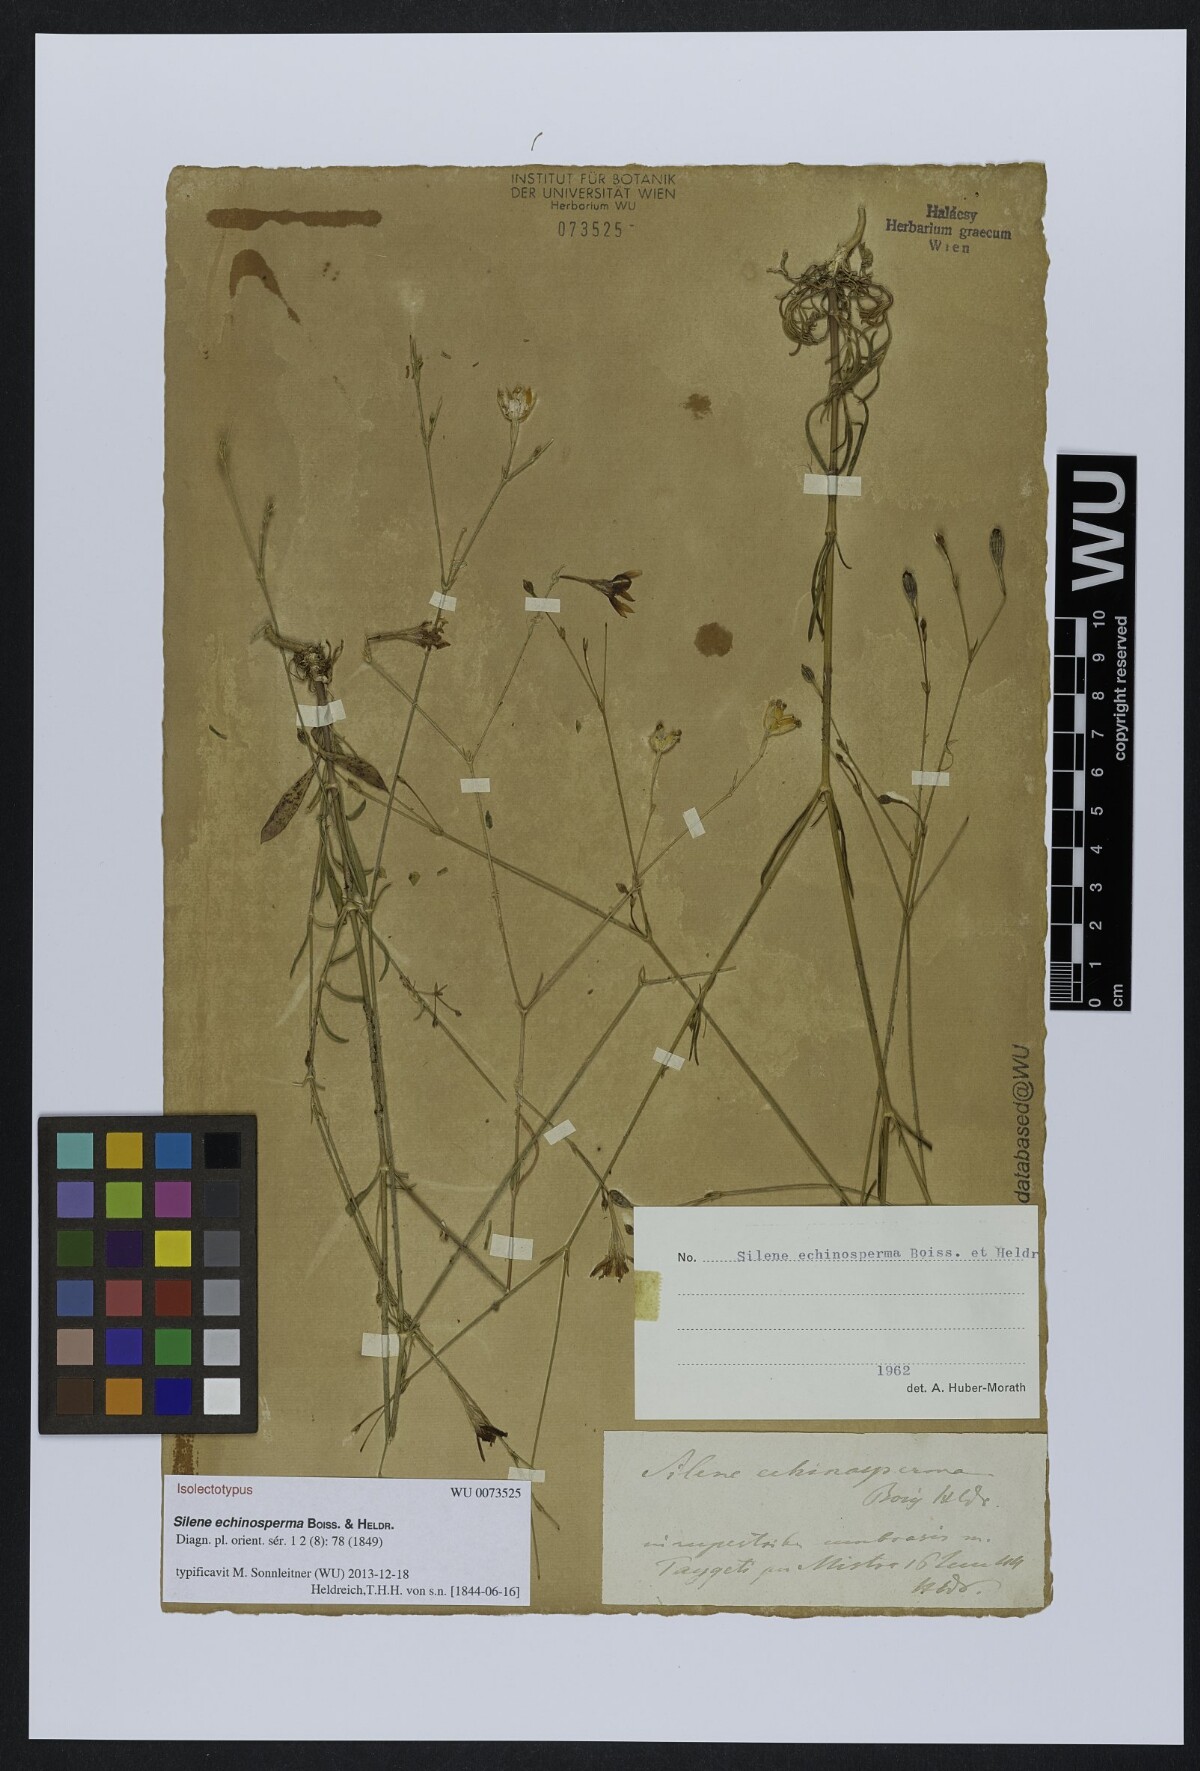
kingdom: Plantae
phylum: Tracheophyta
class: Magnoliopsida
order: Caryophyllales
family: Caryophyllaceae
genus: Silene
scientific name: Silene echinosperma
